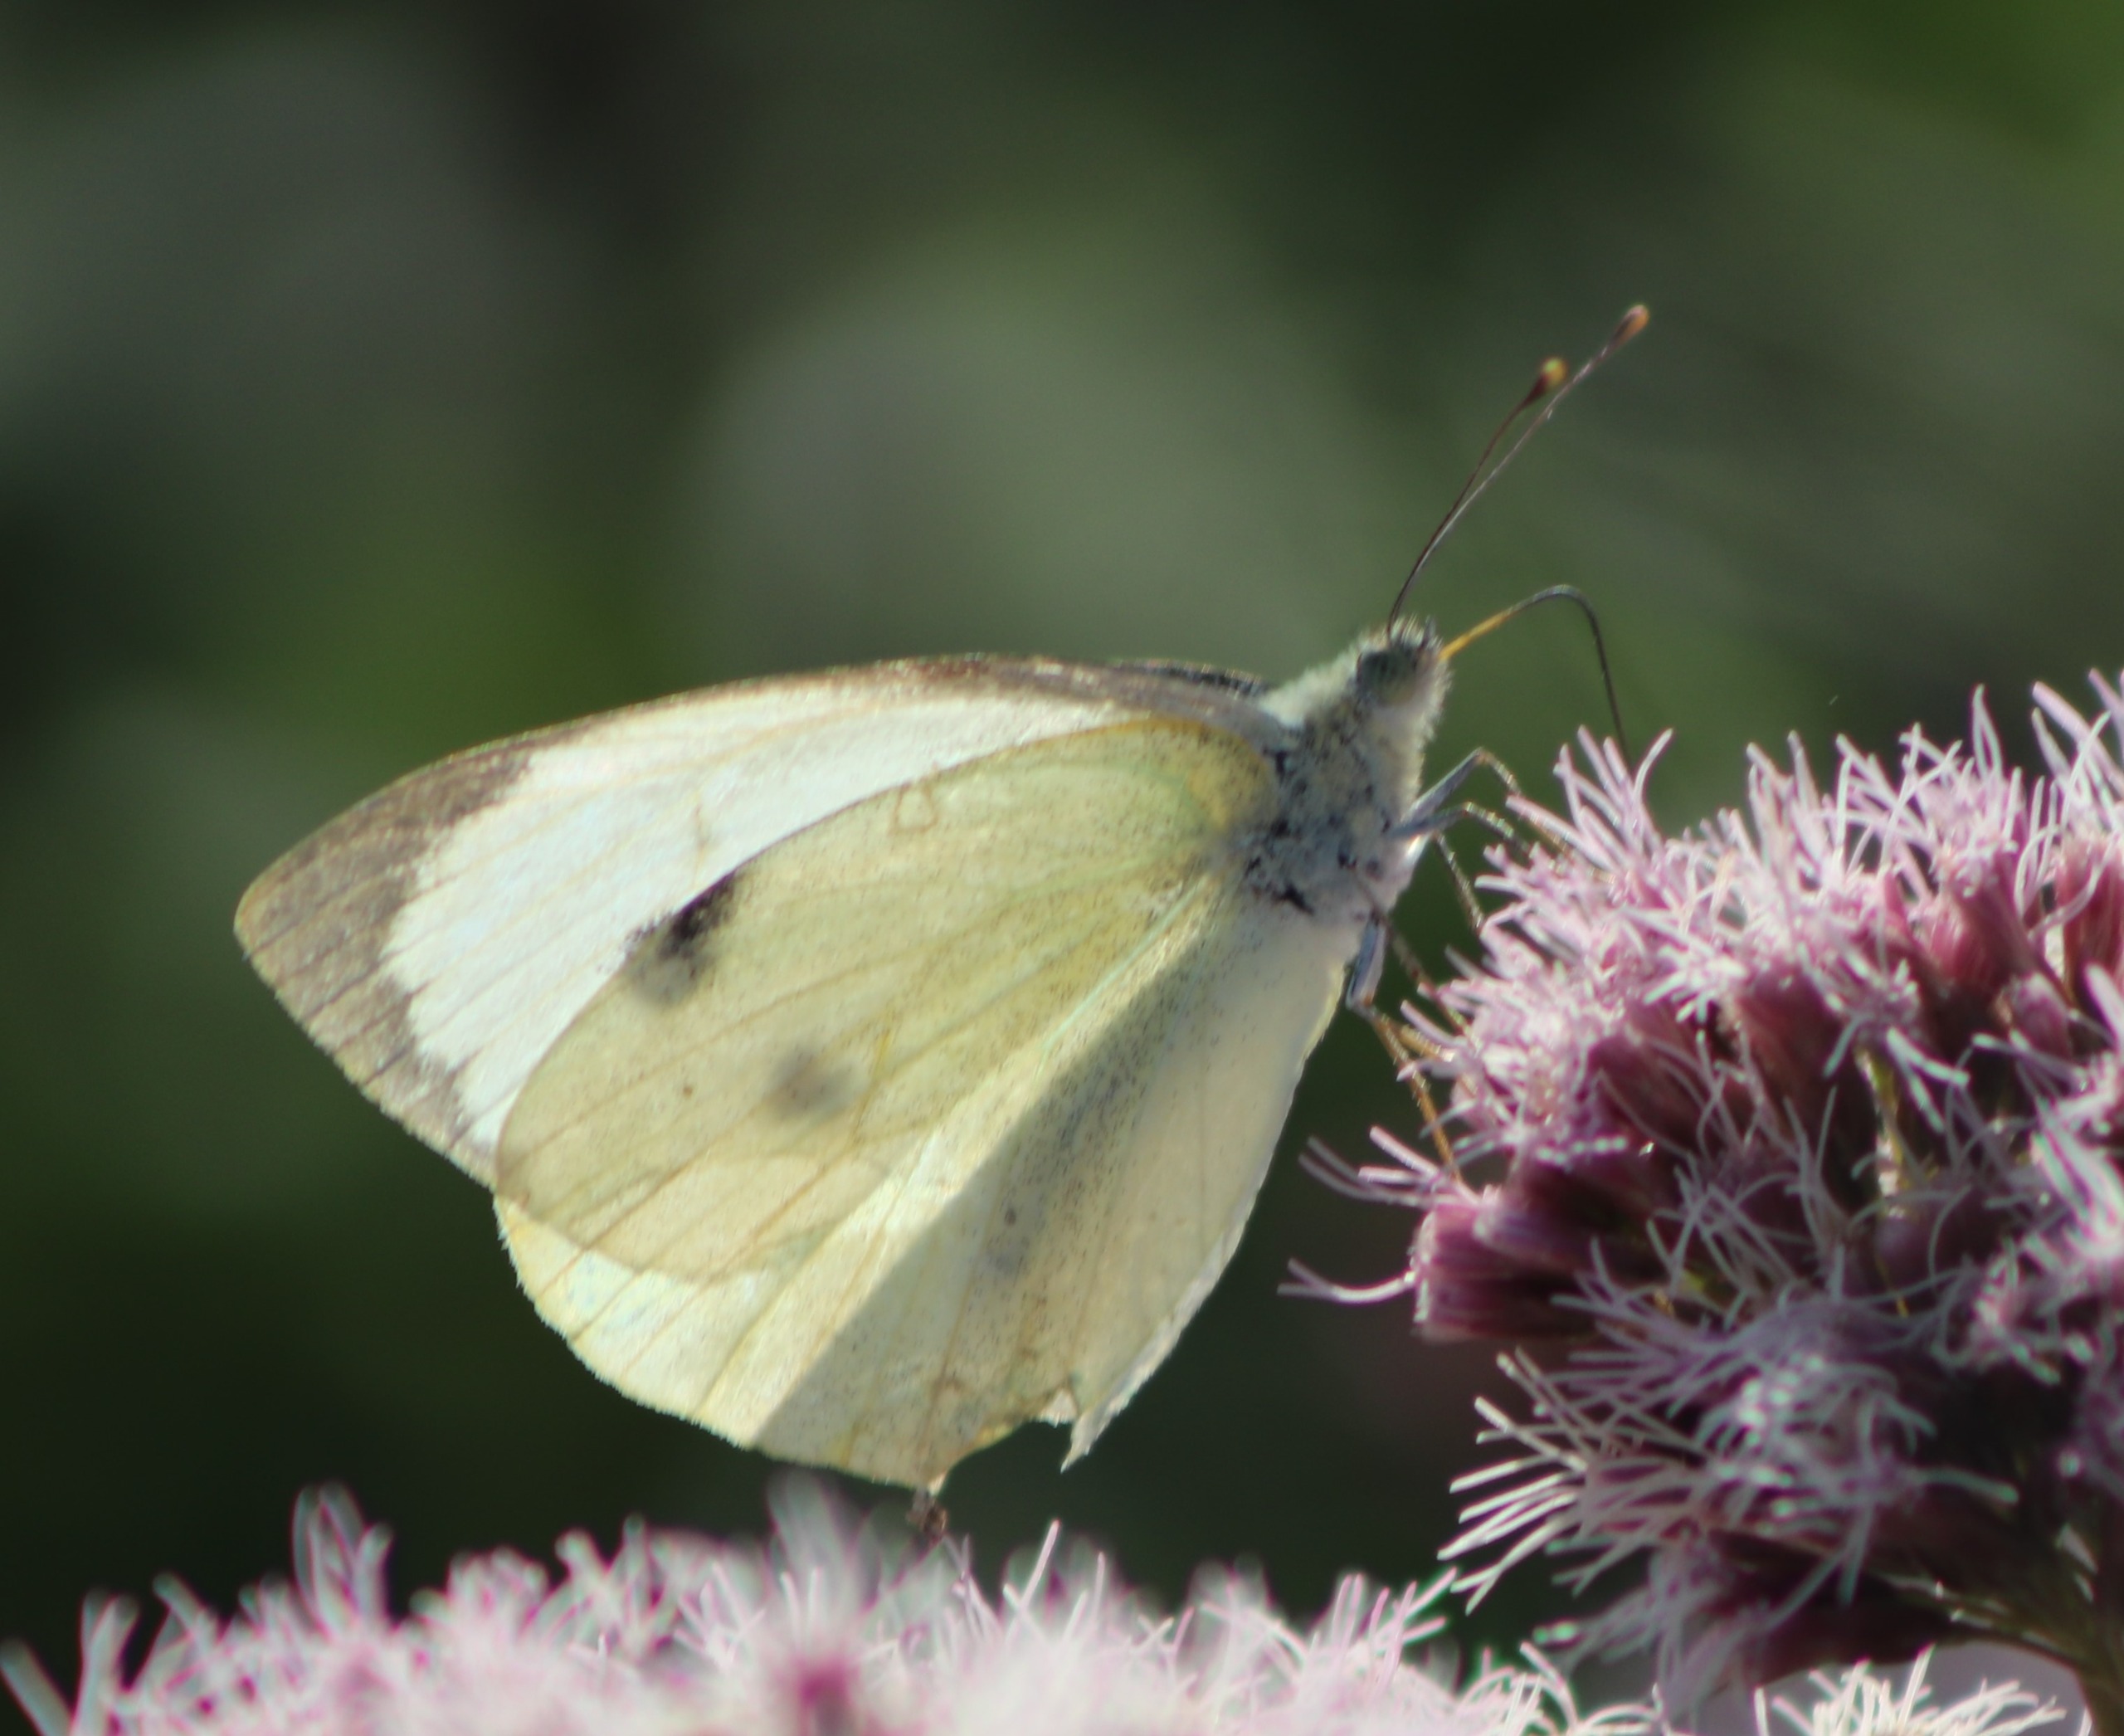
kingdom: Animalia
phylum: Arthropoda
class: Insecta
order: Lepidoptera
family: Pieridae
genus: Pieris
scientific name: Pieris brassicae
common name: Stor kålsommerfugl
